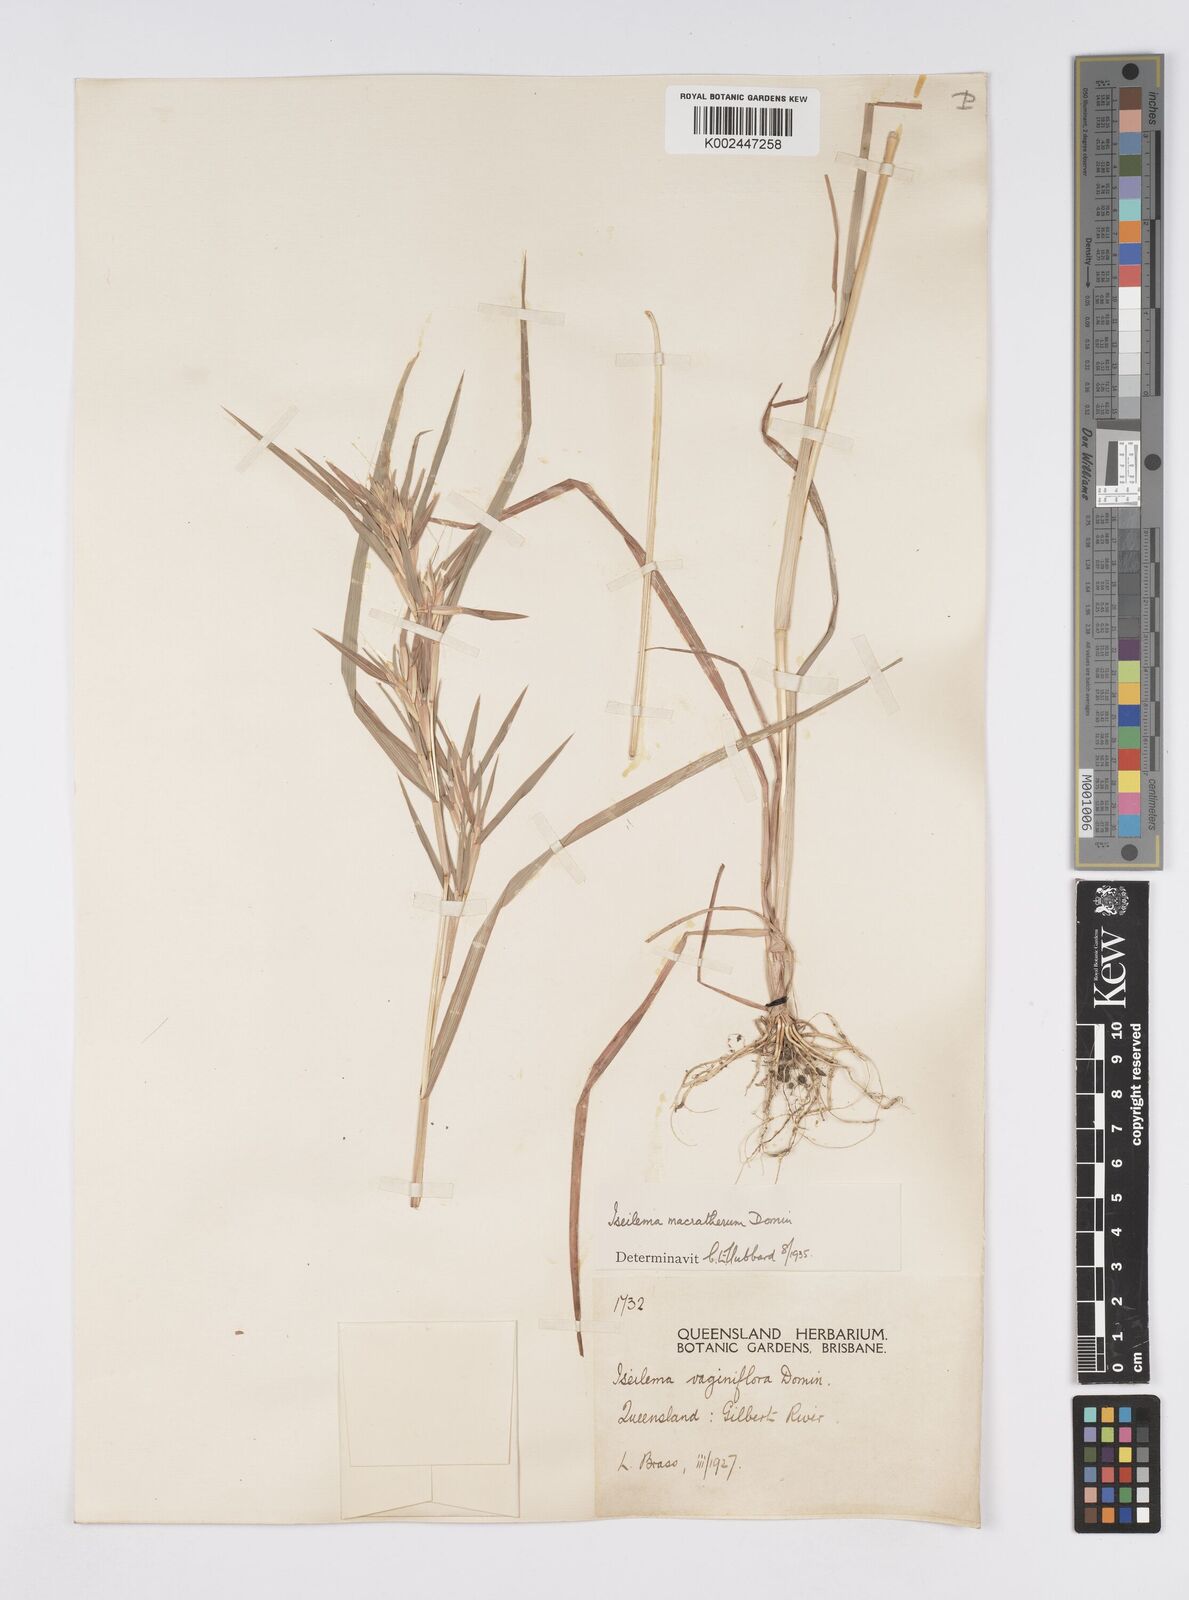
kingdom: Plantae
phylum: Tracheophyta
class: Liliopsida
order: Poales
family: Poaceae
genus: Iseilema
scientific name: Iseilema macratherum
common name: Bull flinders grass
